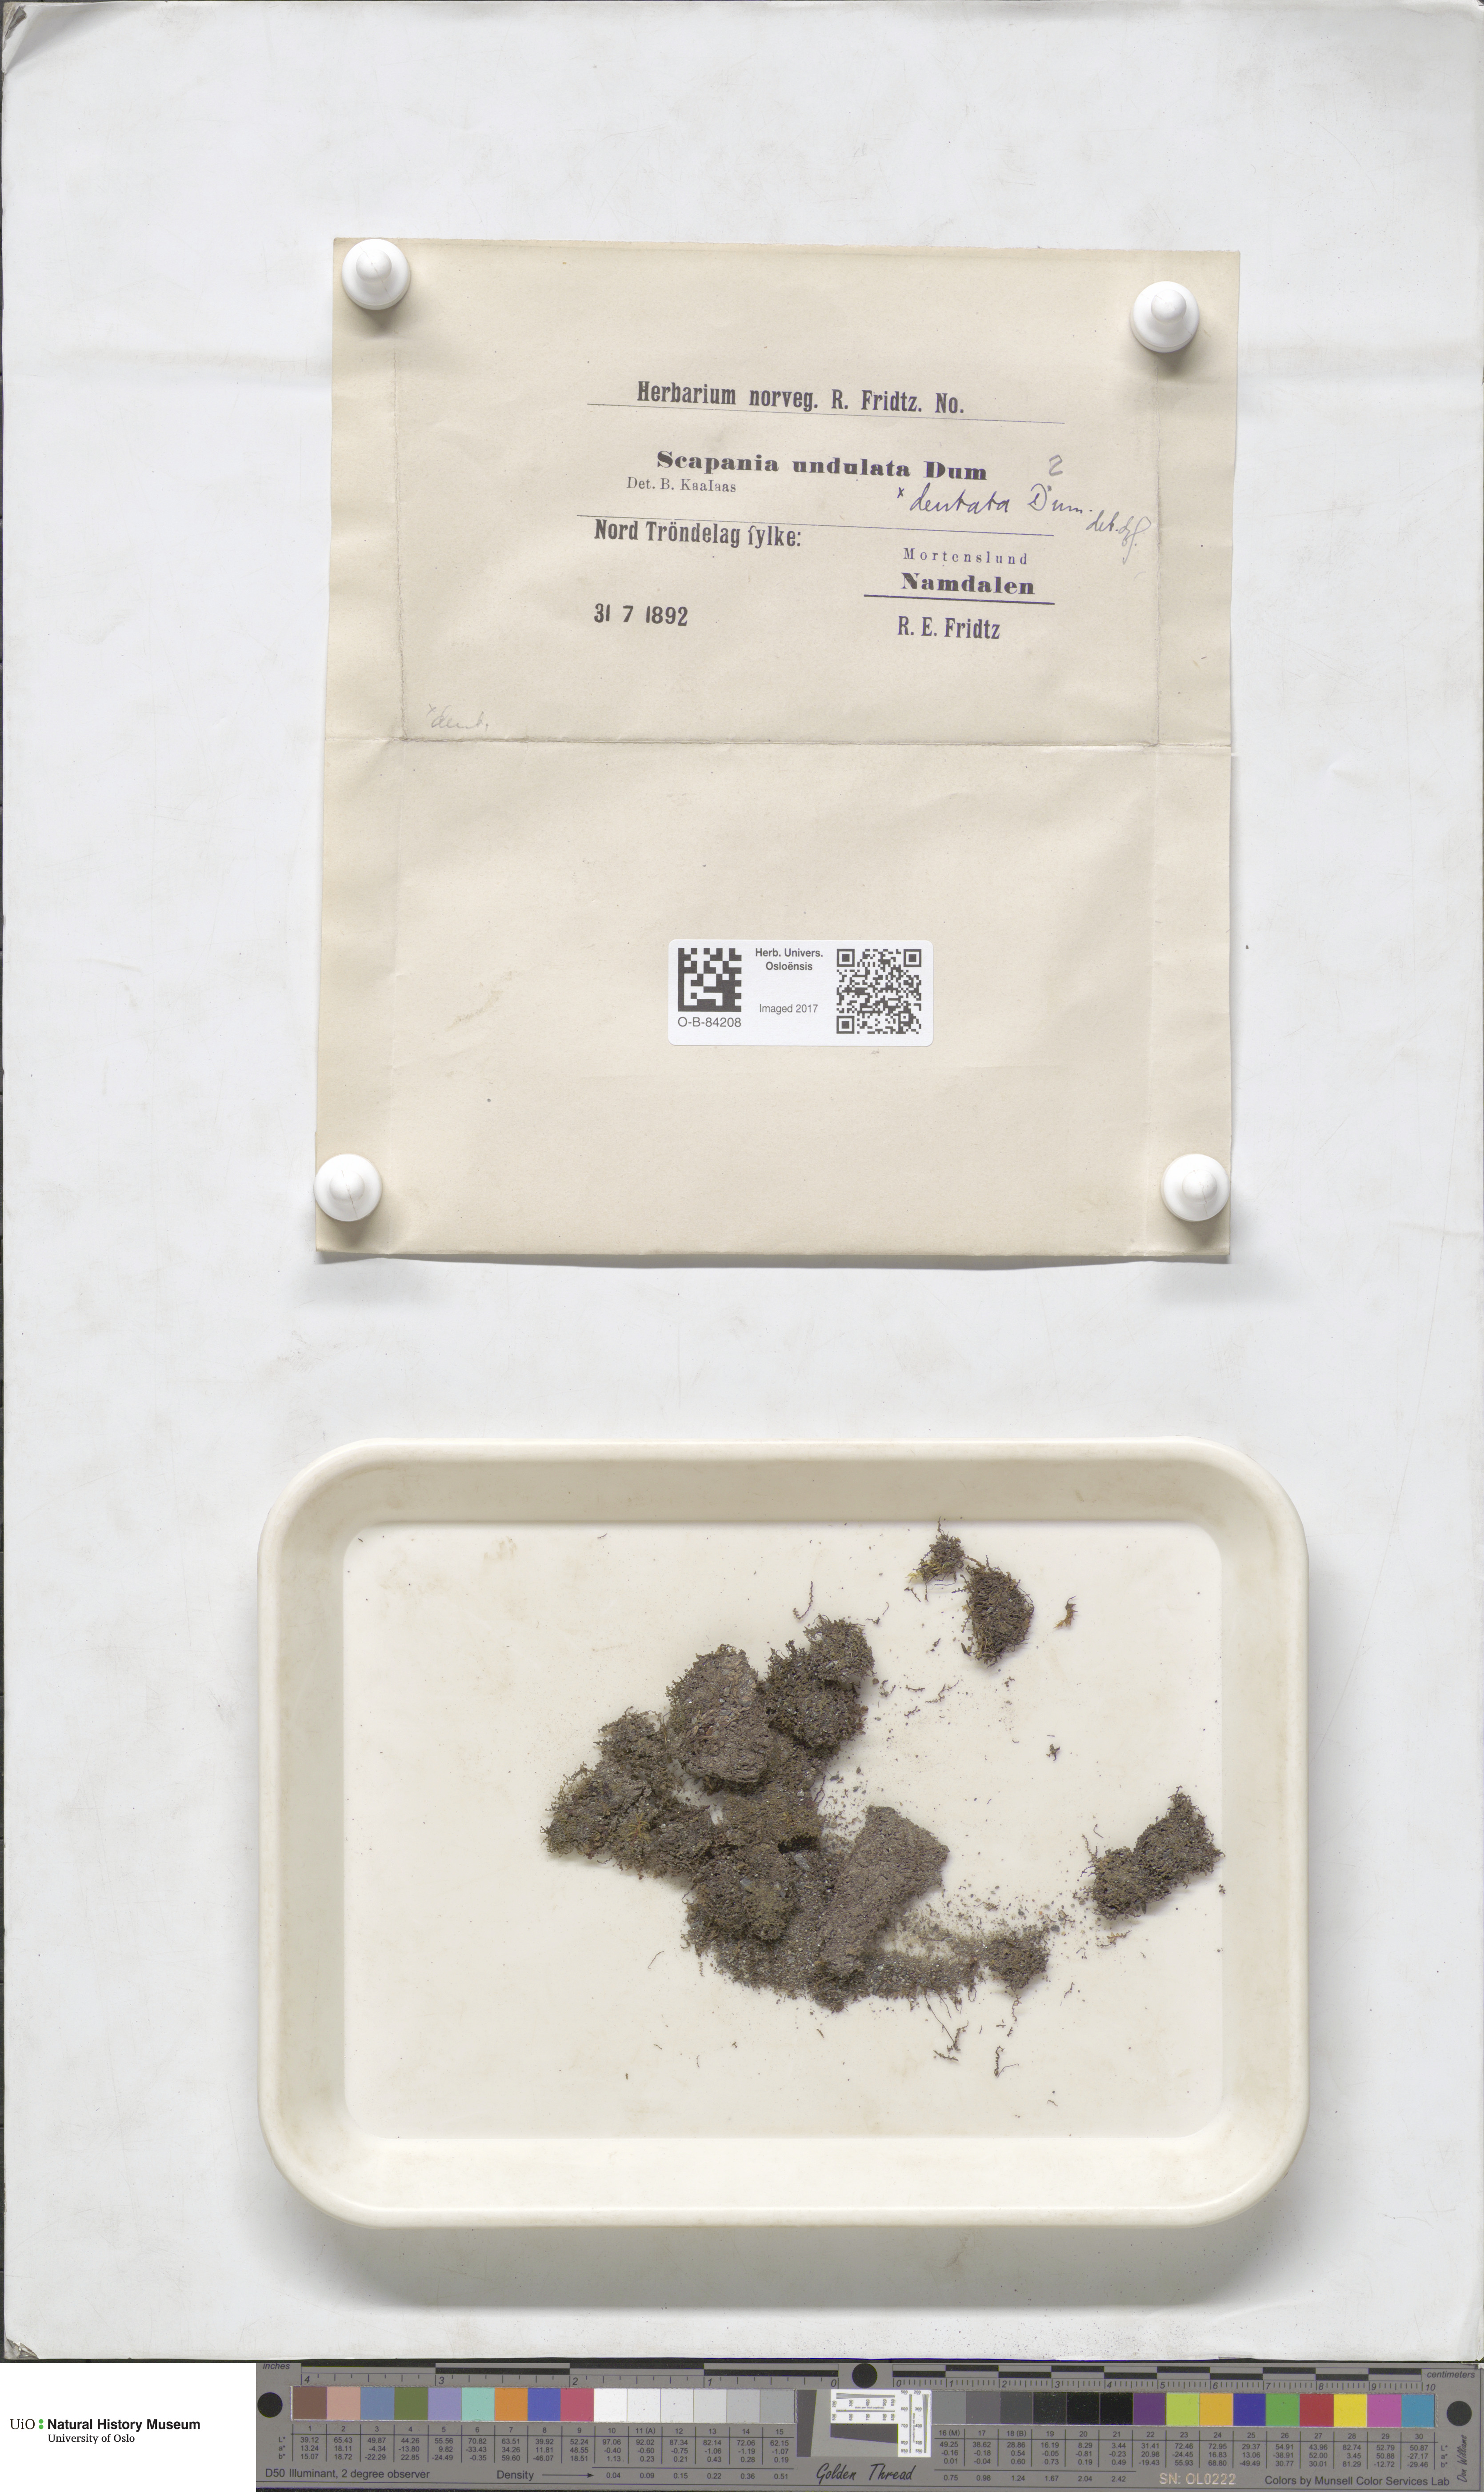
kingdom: Plantae
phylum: Marchantiophyta
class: Jungermanniopsida
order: Jungermanniales
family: Scapaniaceae
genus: Scapania
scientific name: Scapania undulata
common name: Water earwort
